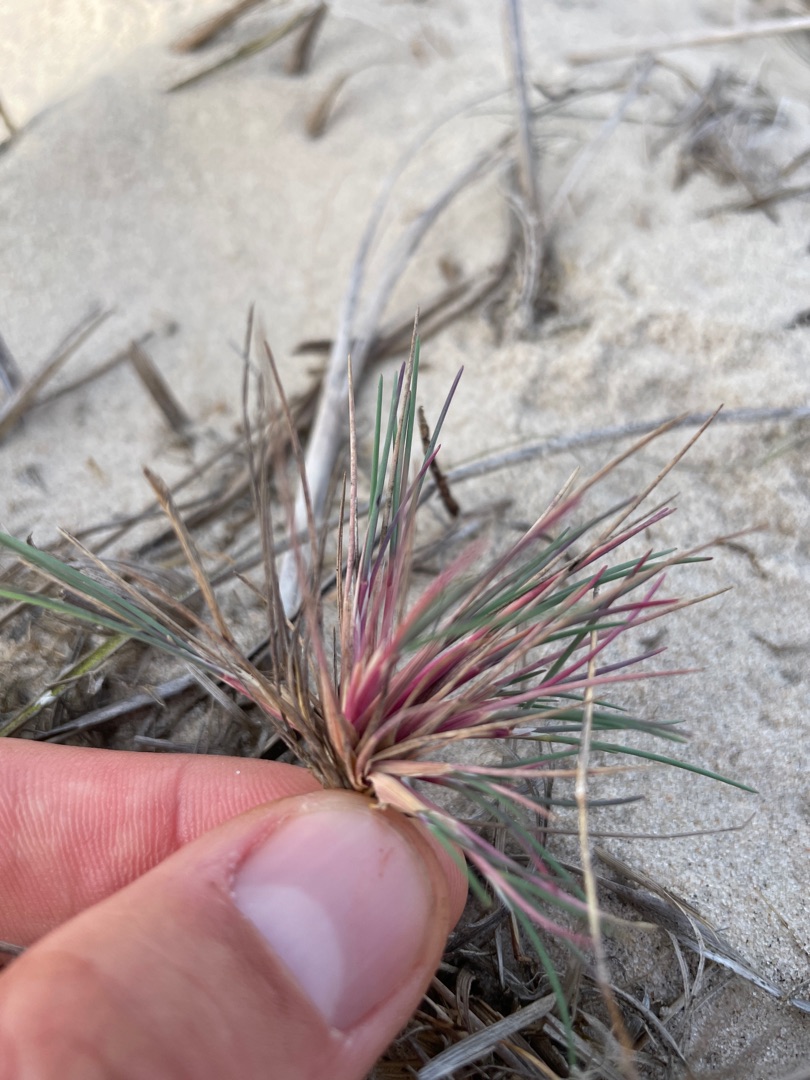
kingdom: Plantae
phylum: Tracheophyta
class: Liliopsida
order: Poales
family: Poaceae
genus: Corynephorus
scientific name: Corynephorus canescens
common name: Sandskæg
